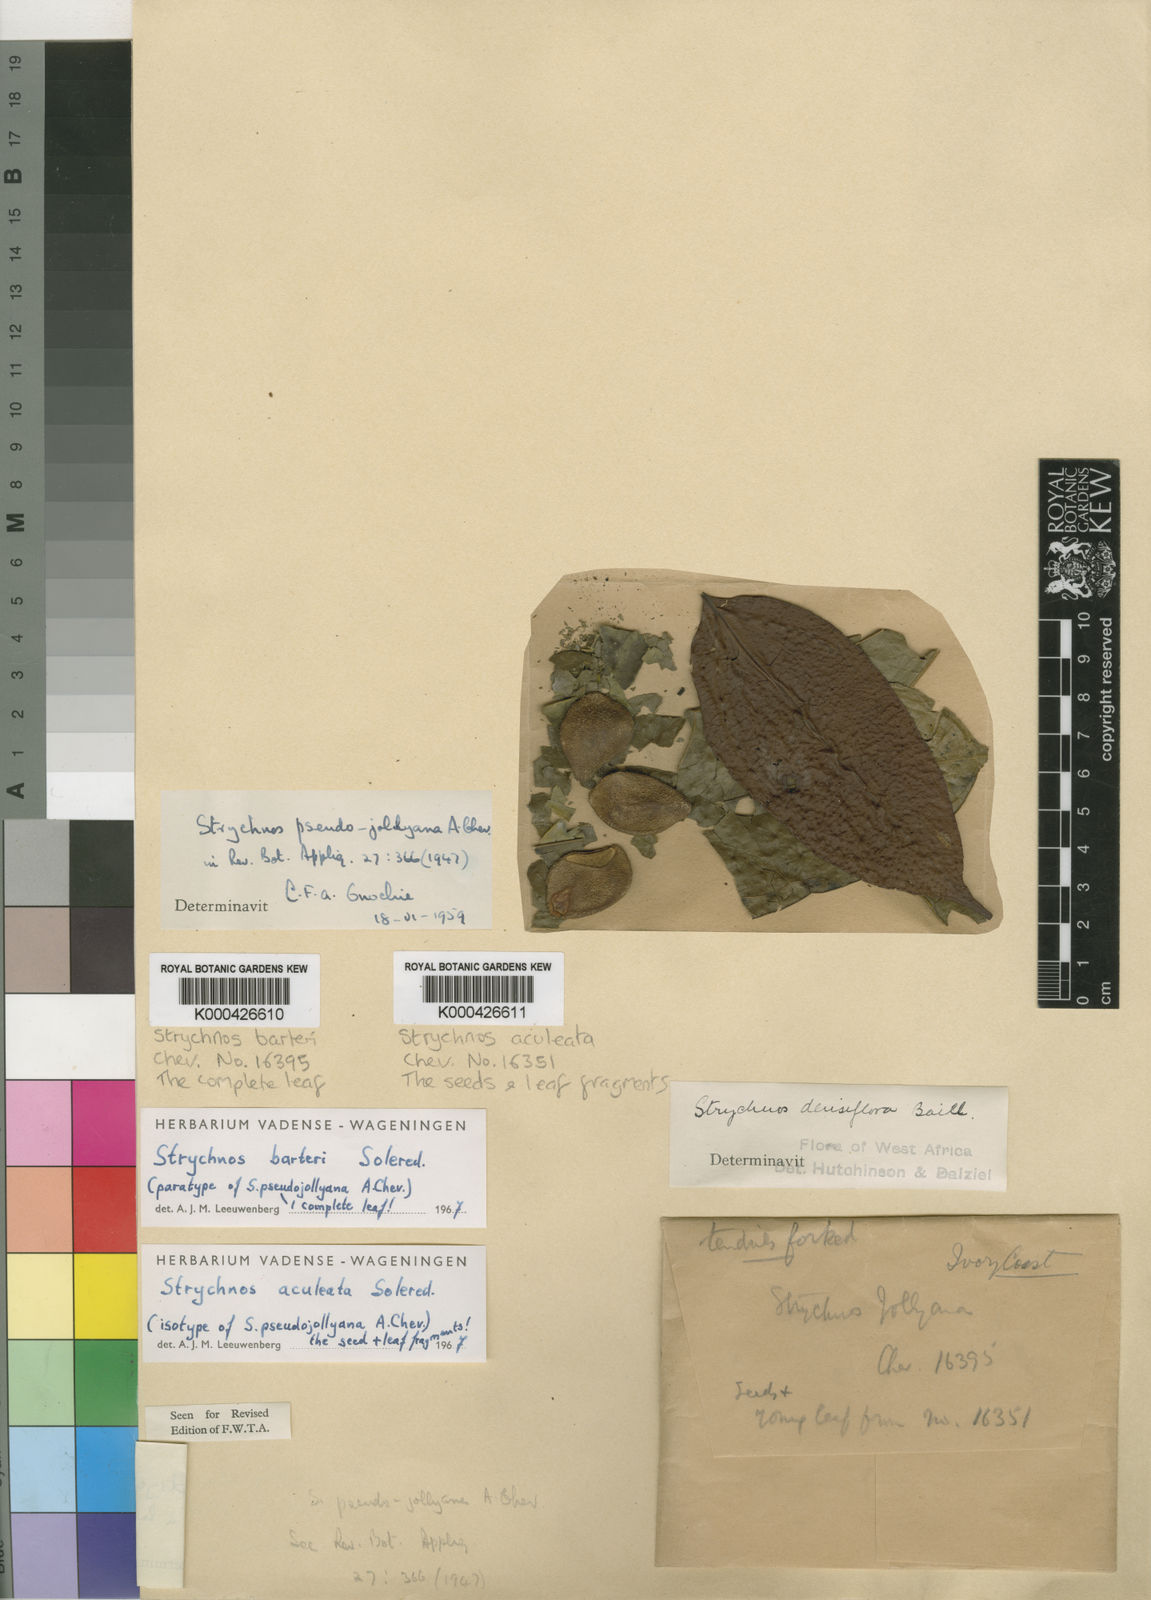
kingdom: Plantae
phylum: Tracheophyta
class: Magnoliopsida
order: Gentianales
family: Loganiaceae
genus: Strychnos
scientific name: Strychnos barteri
